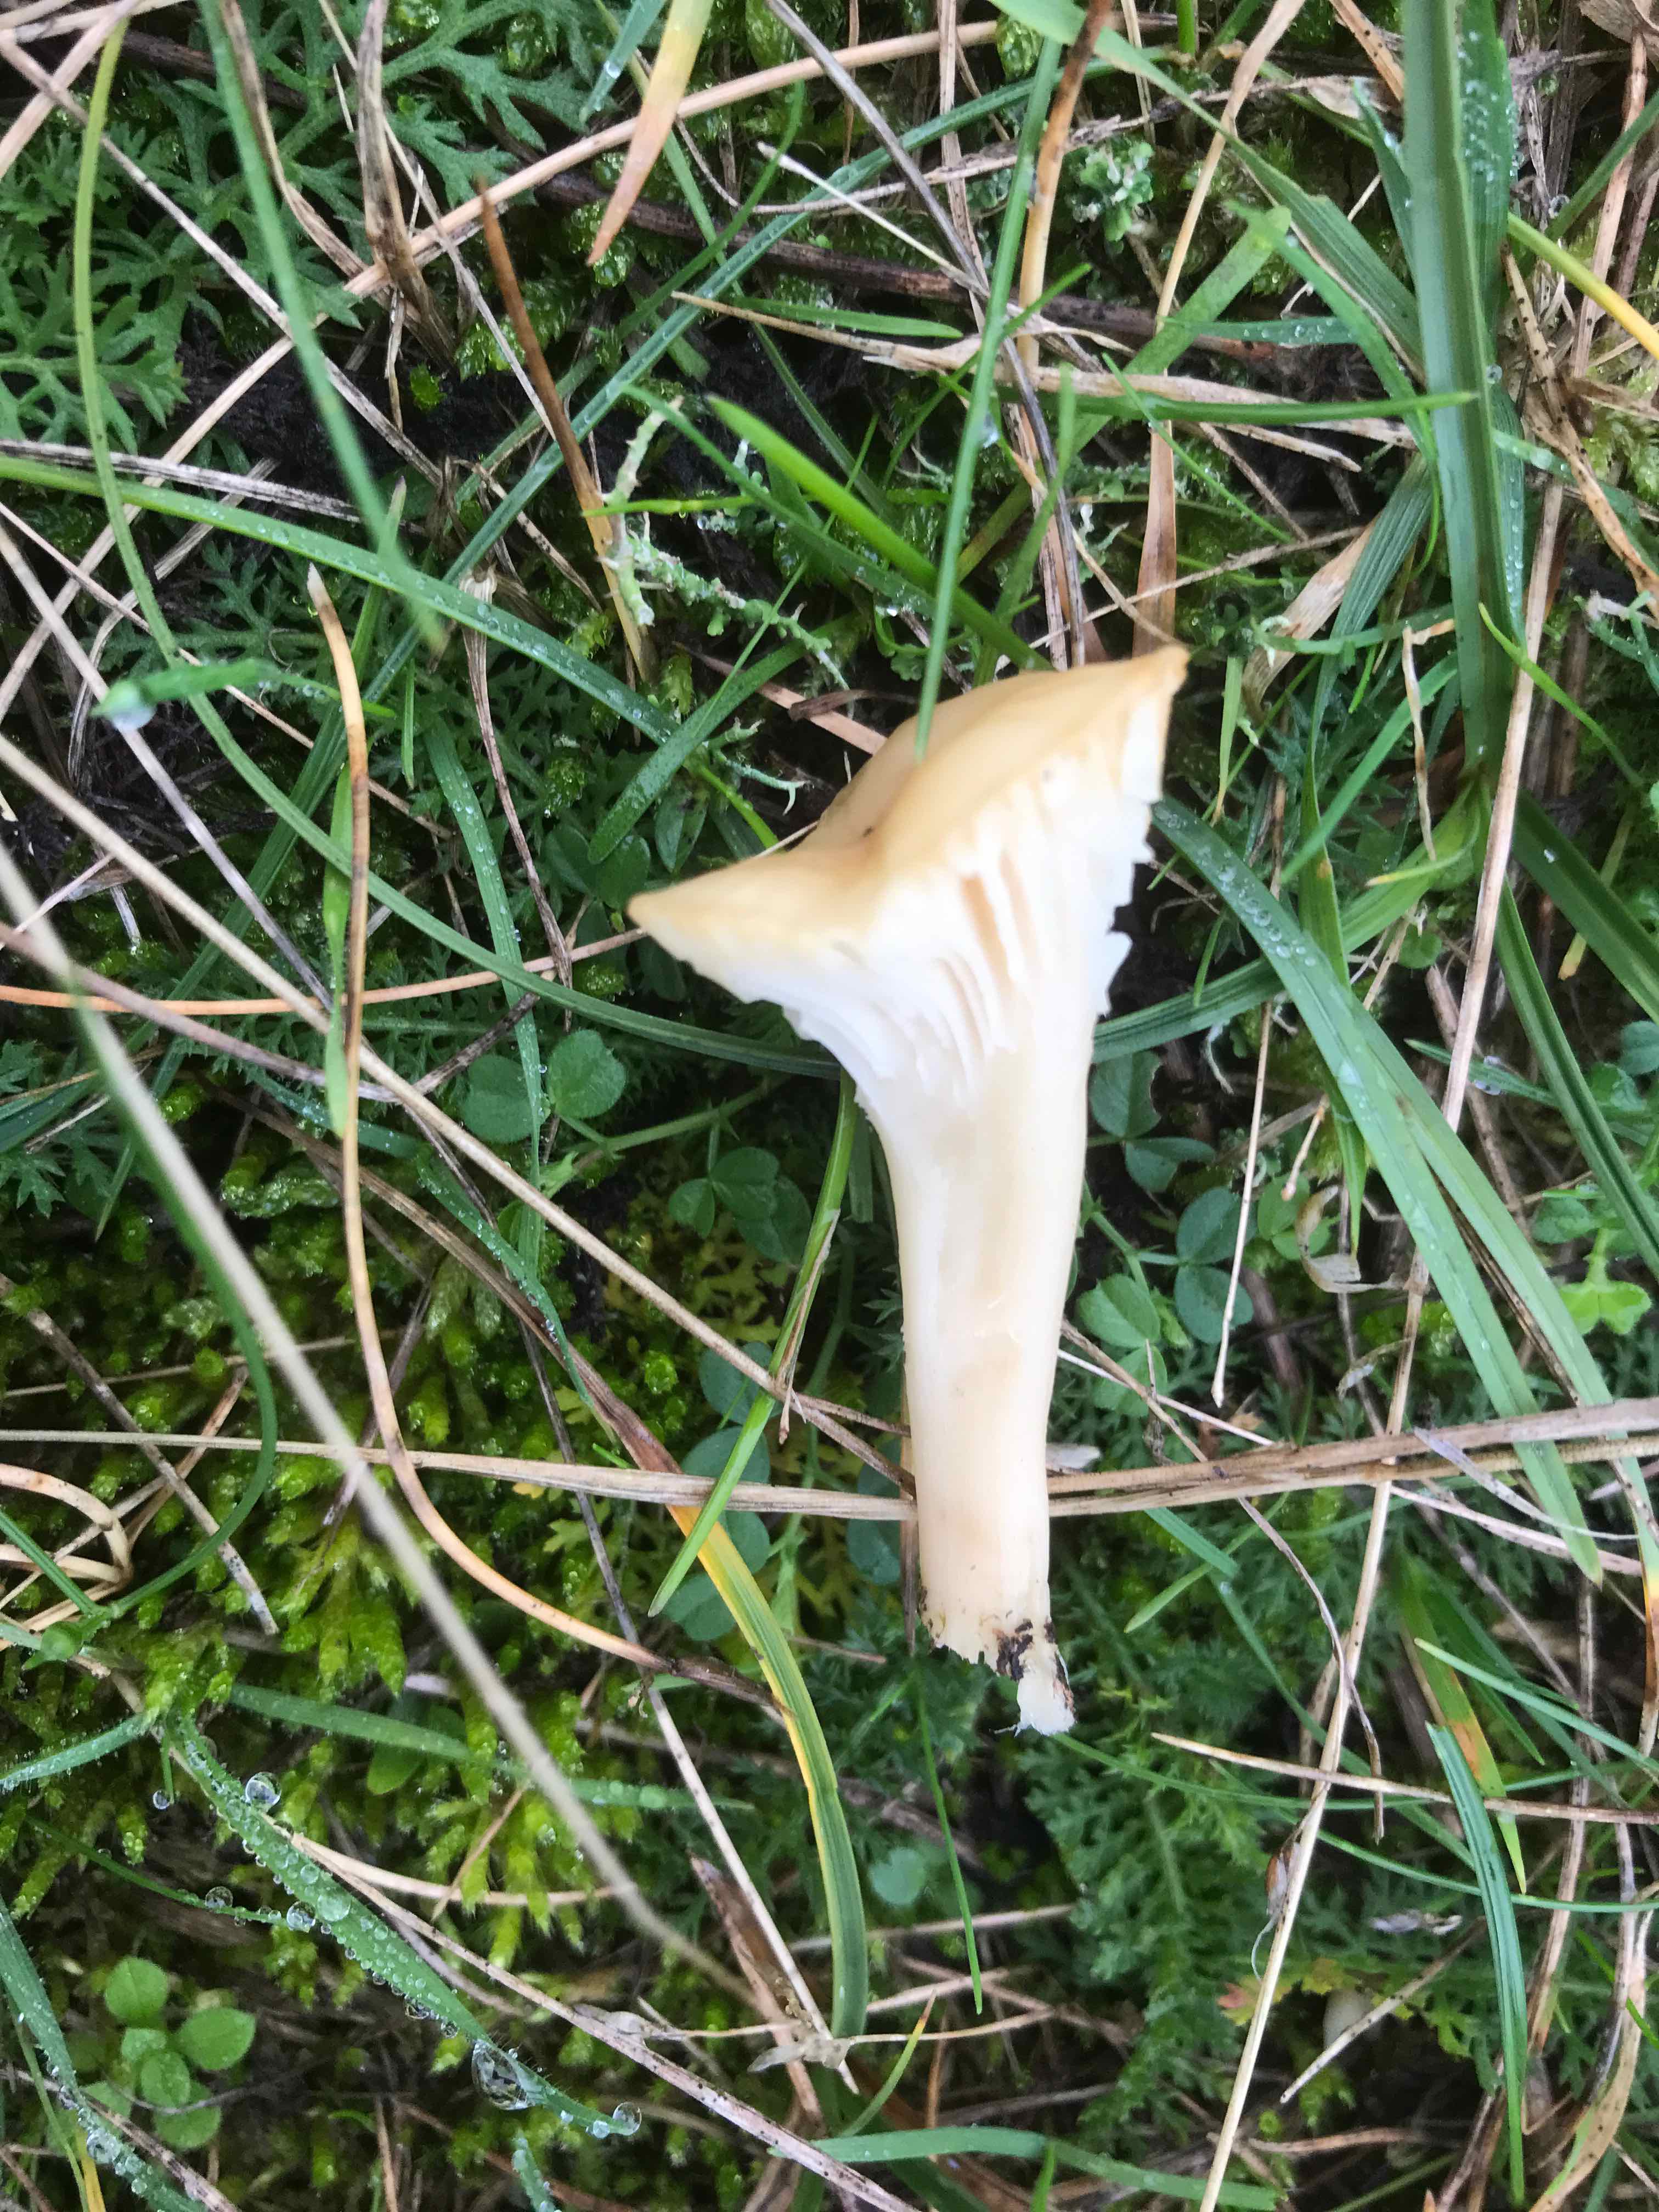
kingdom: Fungi
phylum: Basidiomycota
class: Agaricomycetes
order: Agaricales
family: Hygrophoraceae
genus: Cuphophyllus
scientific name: Cuphophyllus
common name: vokshat
